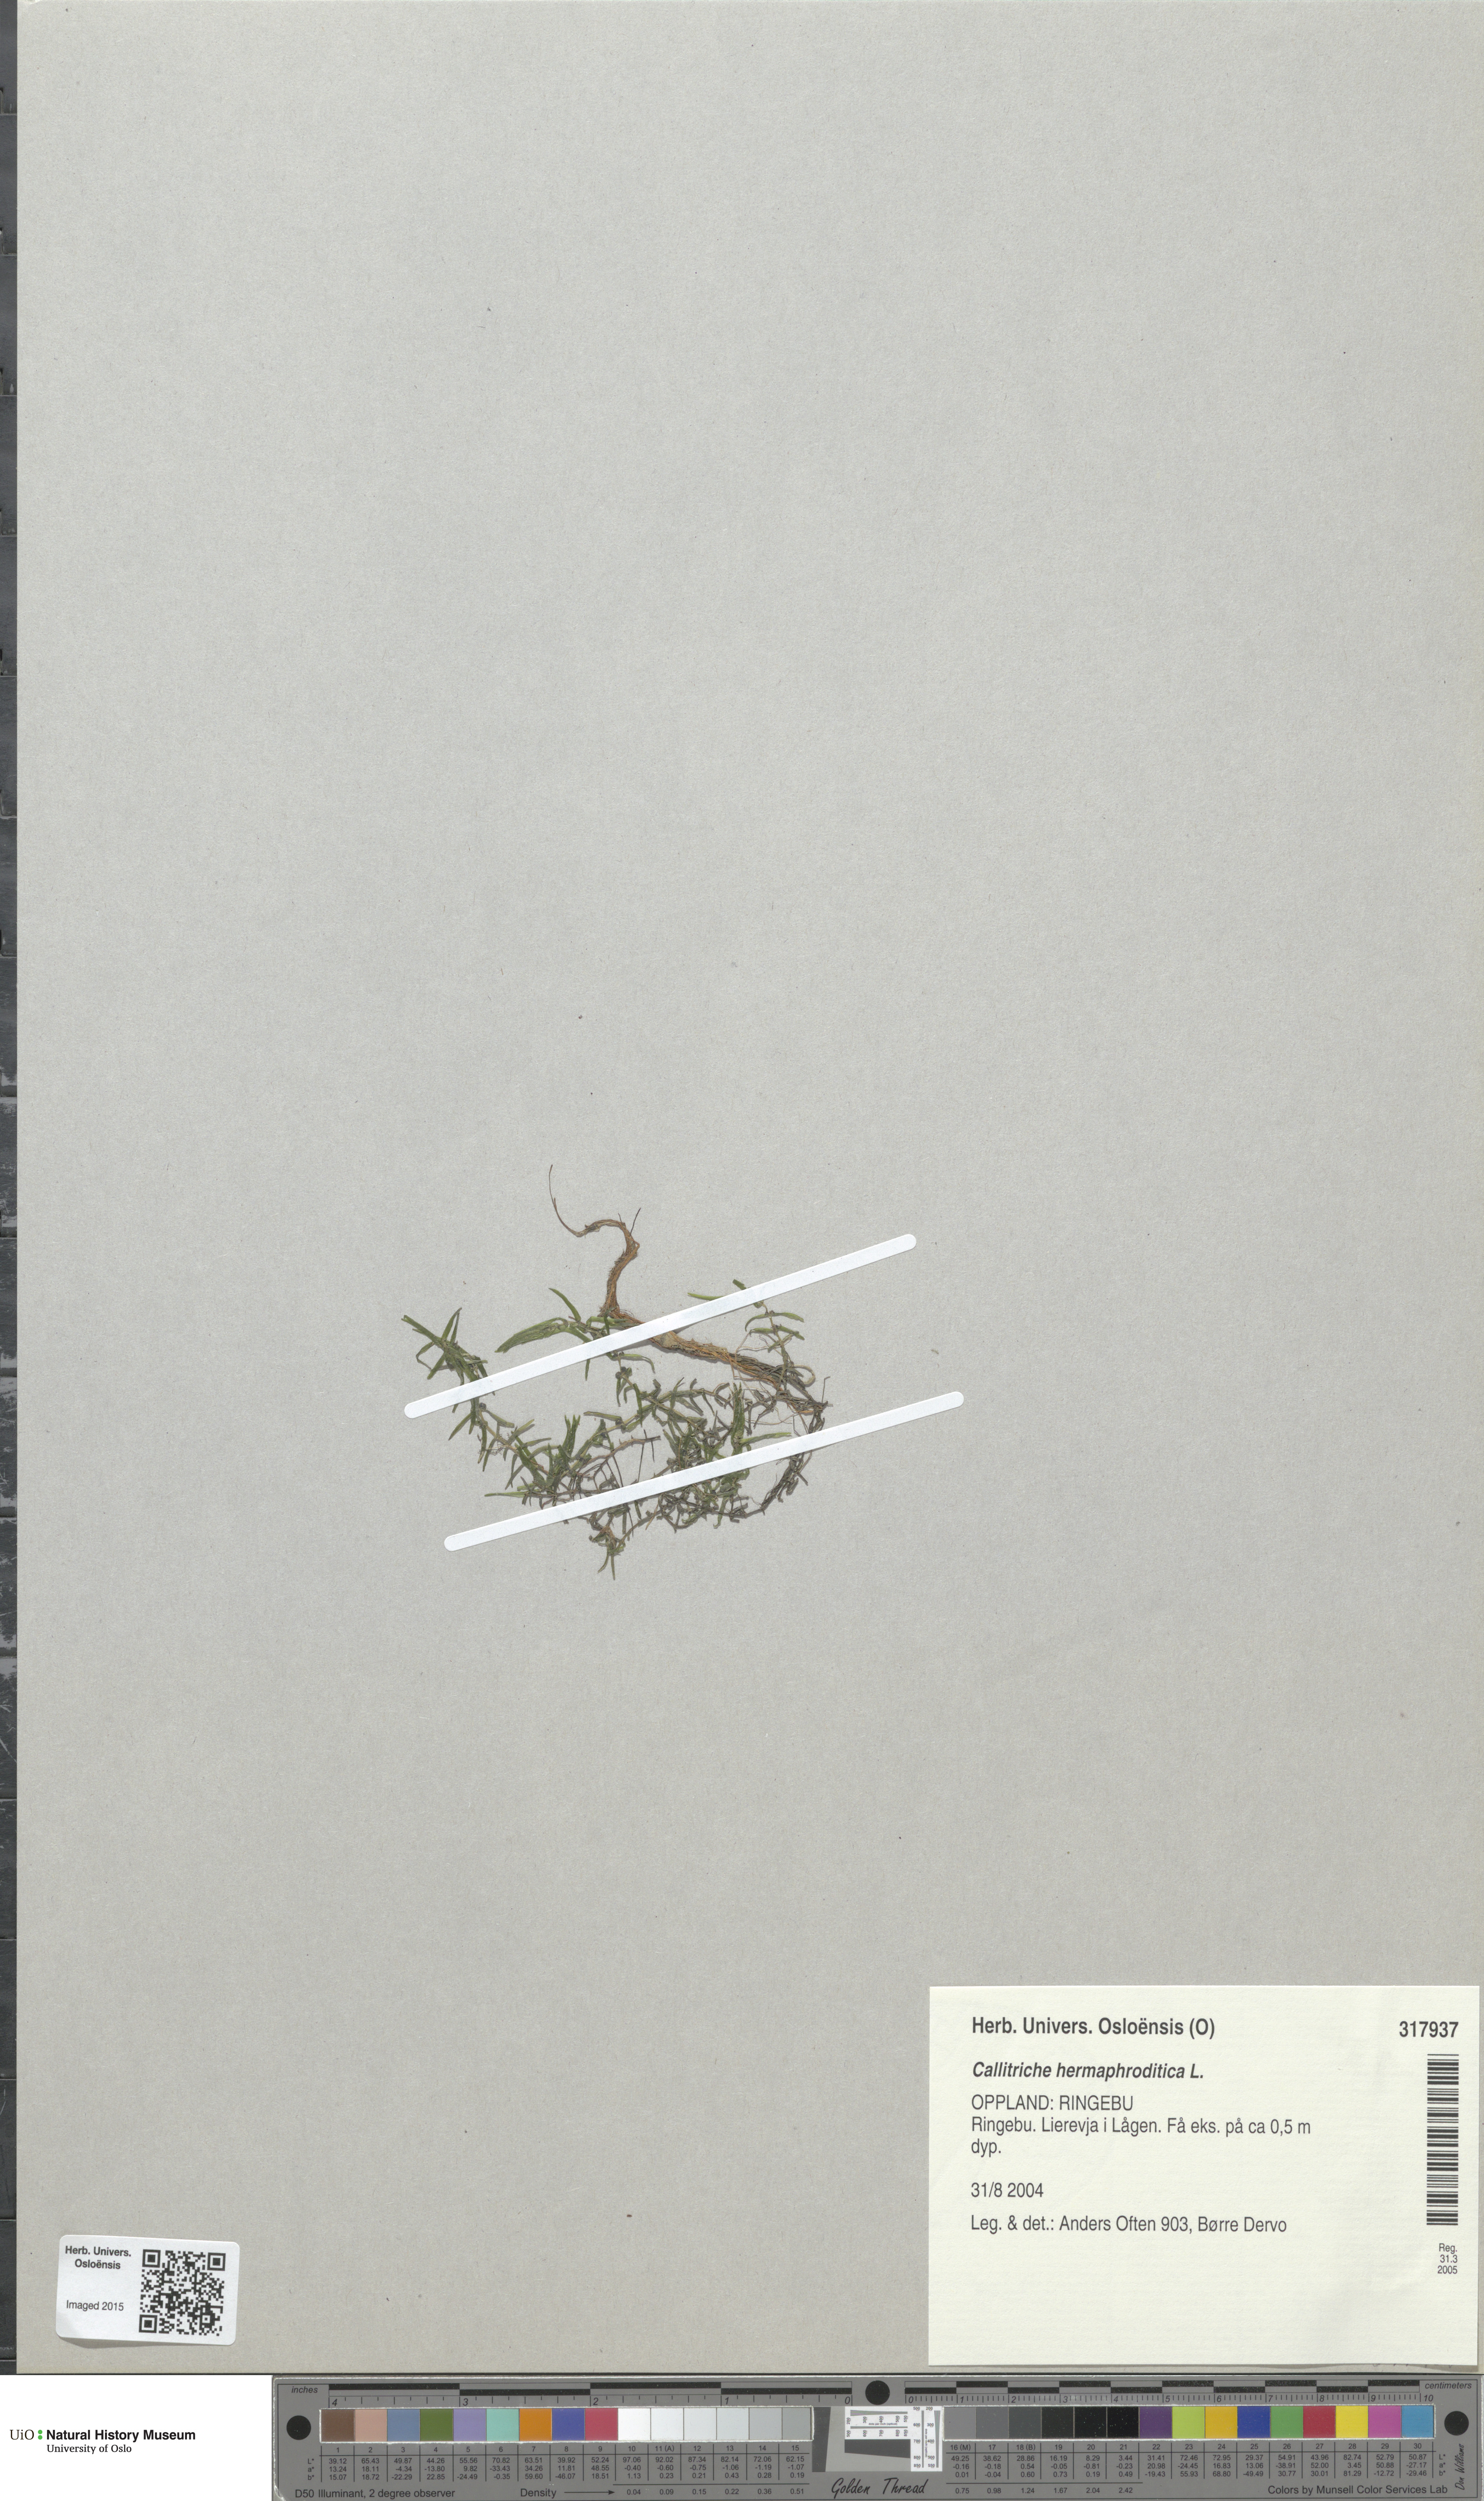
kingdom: Plantae
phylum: Tracheophyta
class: Magnoliopsida
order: Lamiales
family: Plantaginaceae
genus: Callitriche
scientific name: Callitriche hermaphroditica
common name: Autumnal water-starwort
